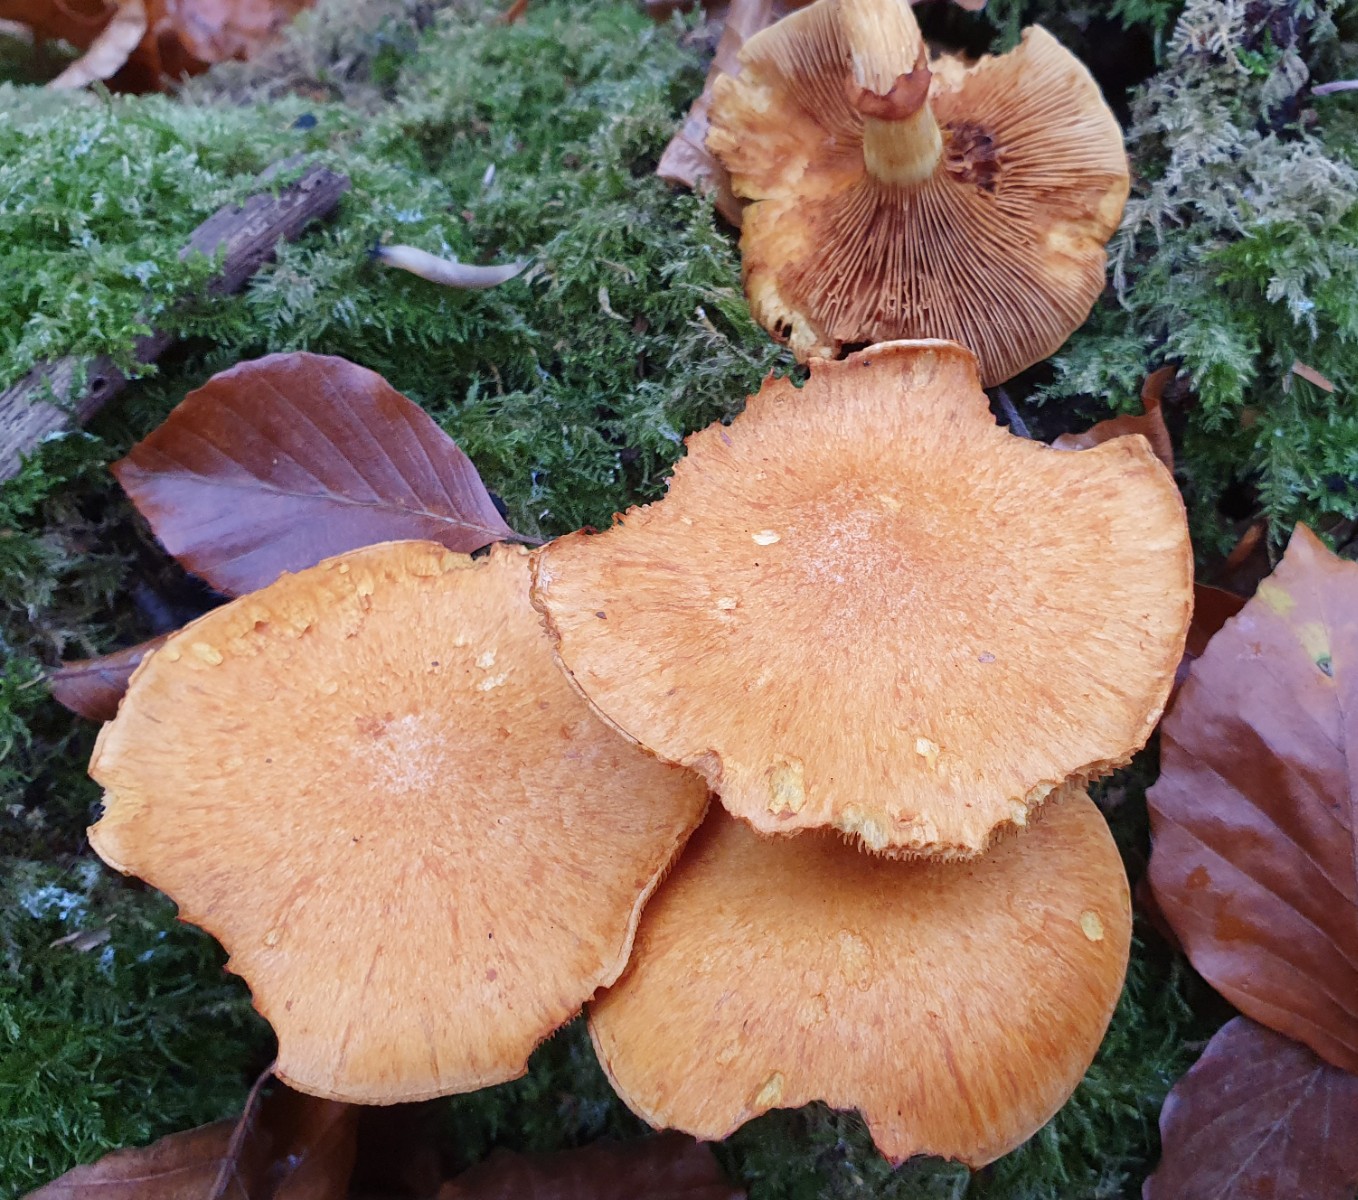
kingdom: Fungi
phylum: Basidiomycota
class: Agaricomycetes
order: Agaricales
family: Hymenogastraceae
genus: Gymnopilus
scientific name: Gymnopilus spectabilis
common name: fibret flammehat
